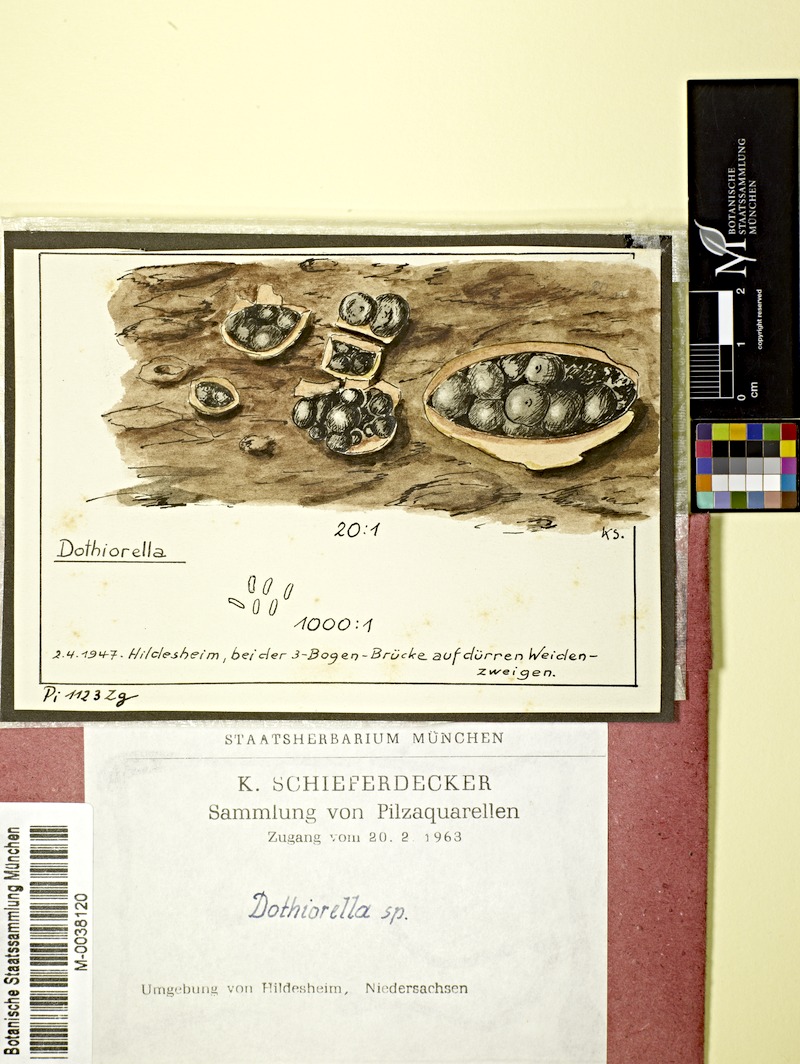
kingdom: Fungi
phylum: Ascomycota
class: Dothideomycetes
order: Botryosphaeriales
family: Botryosphaeriaceae
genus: Dothiorella
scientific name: Dothiorella
